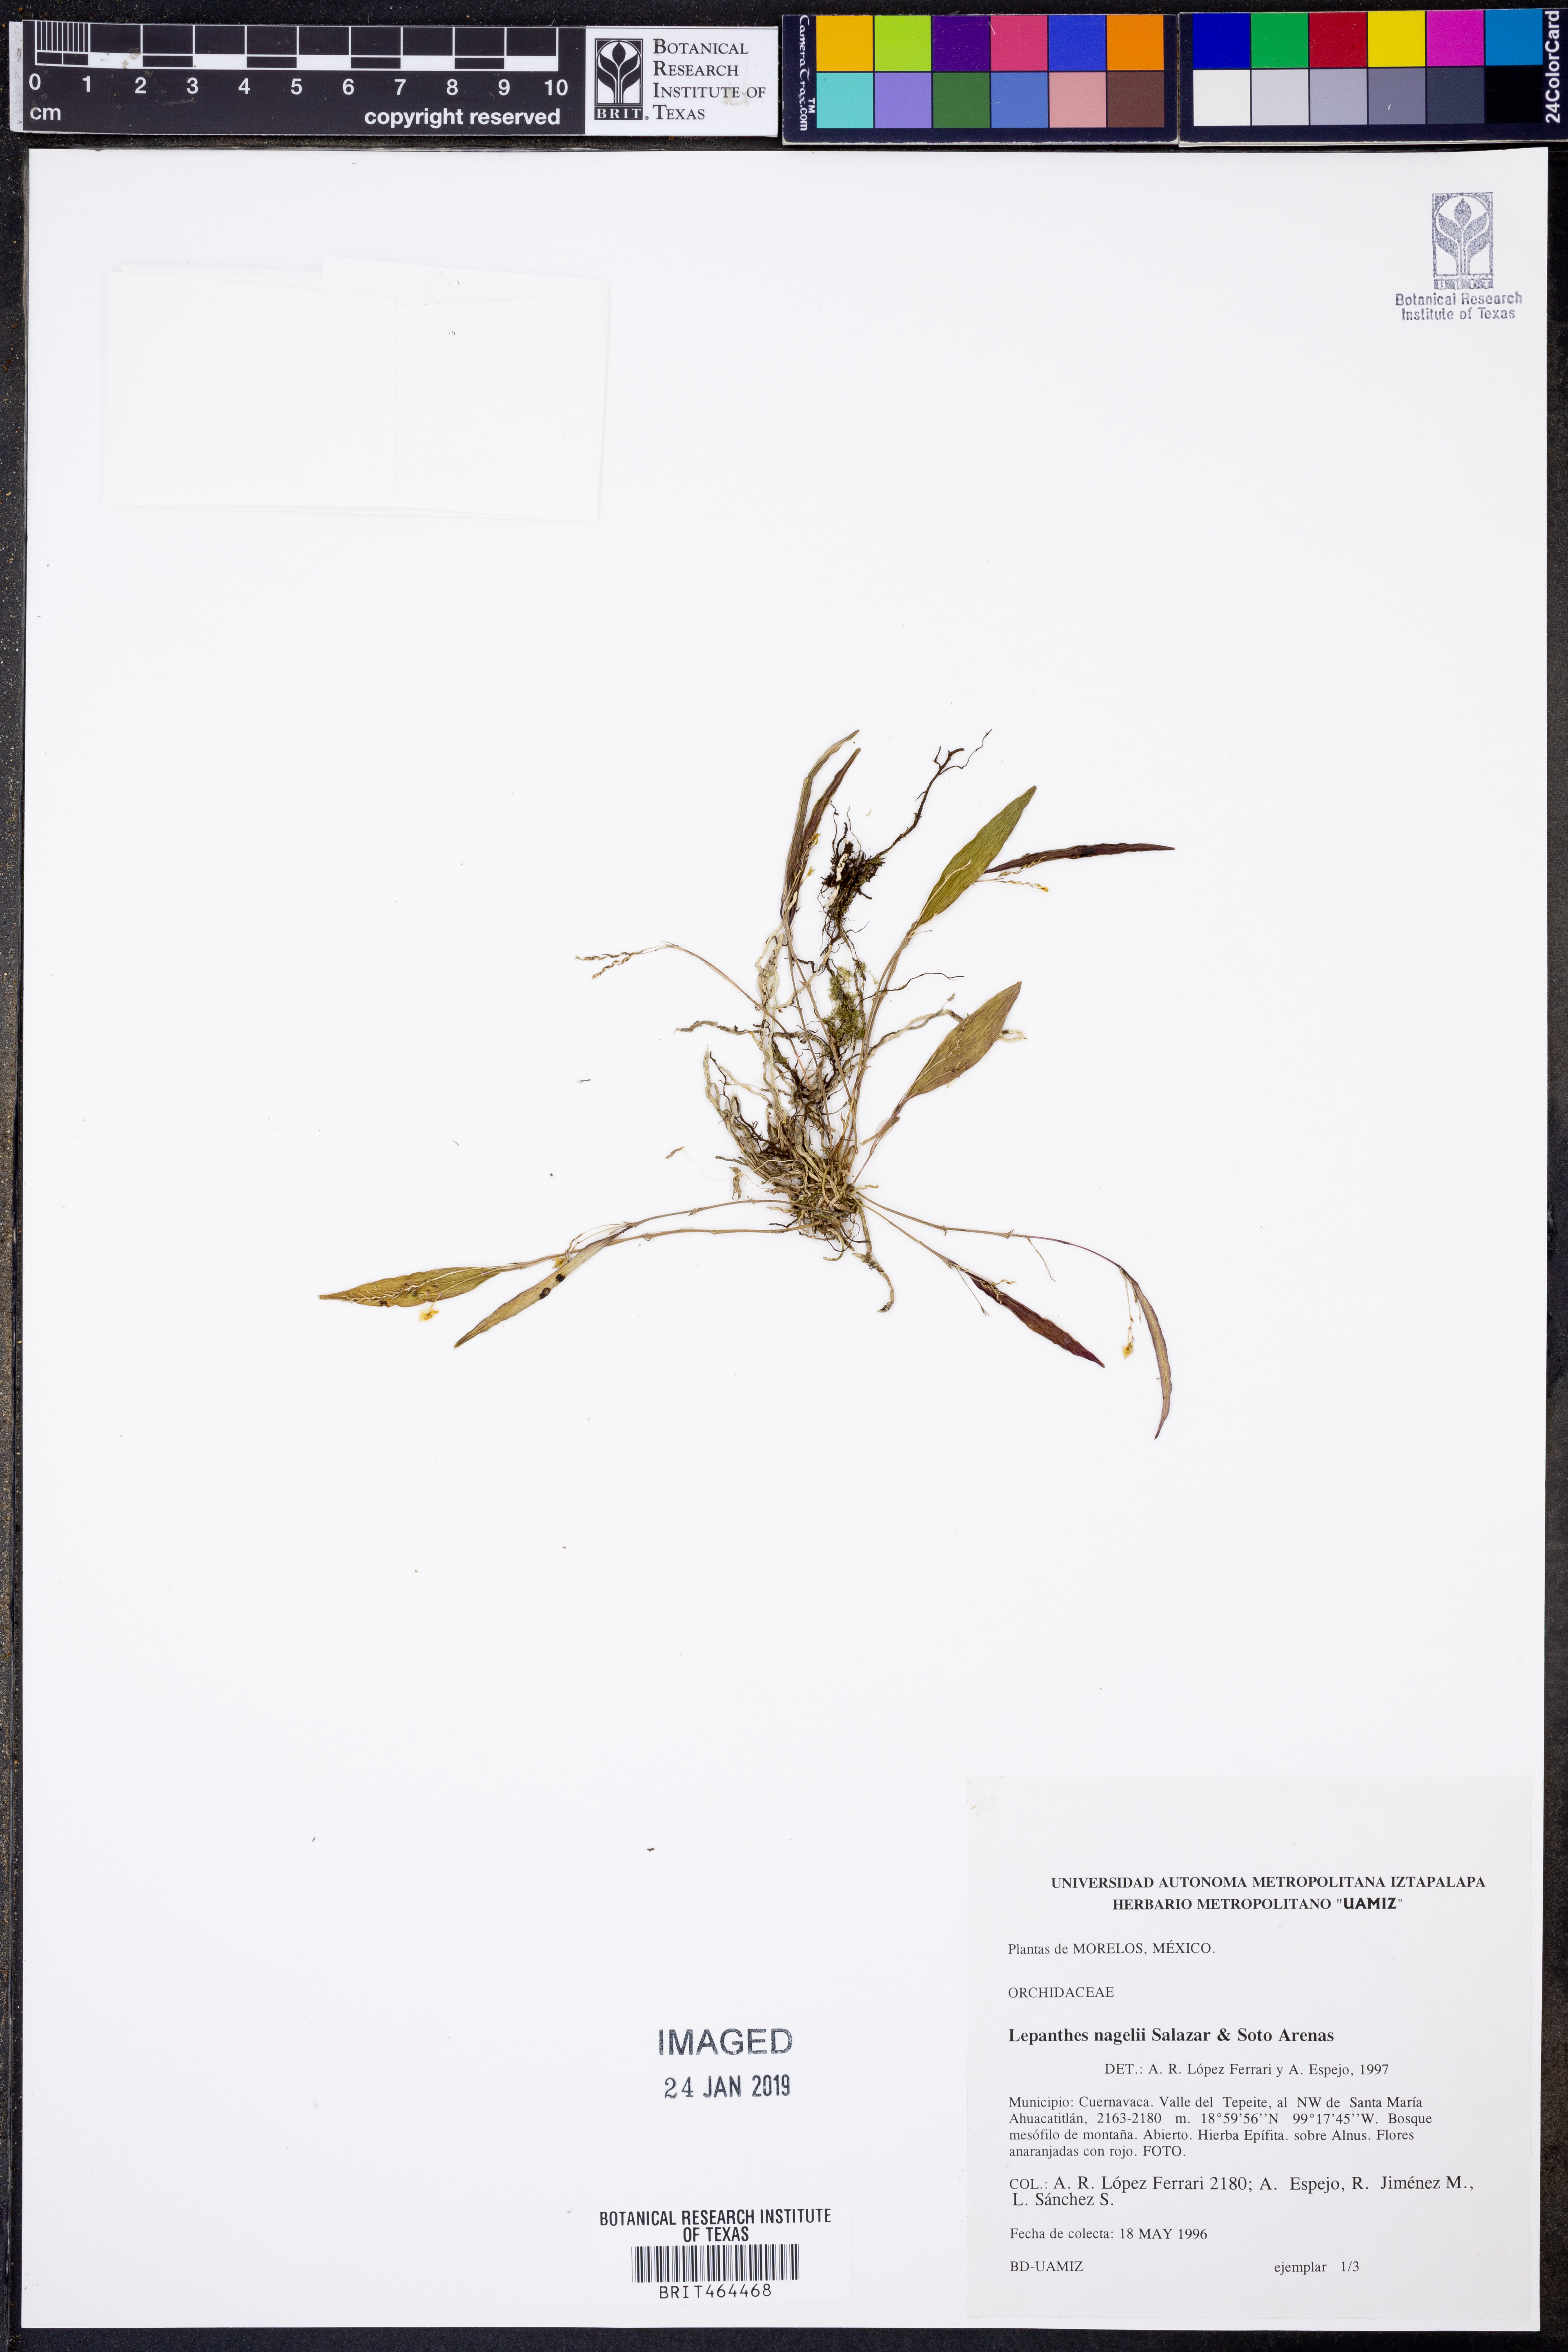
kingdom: Plantae
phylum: Tracheophyta
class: Liliopsida
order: Asparagales
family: Orchidaceae
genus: Lepanthes
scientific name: Lepanthes nagelii
